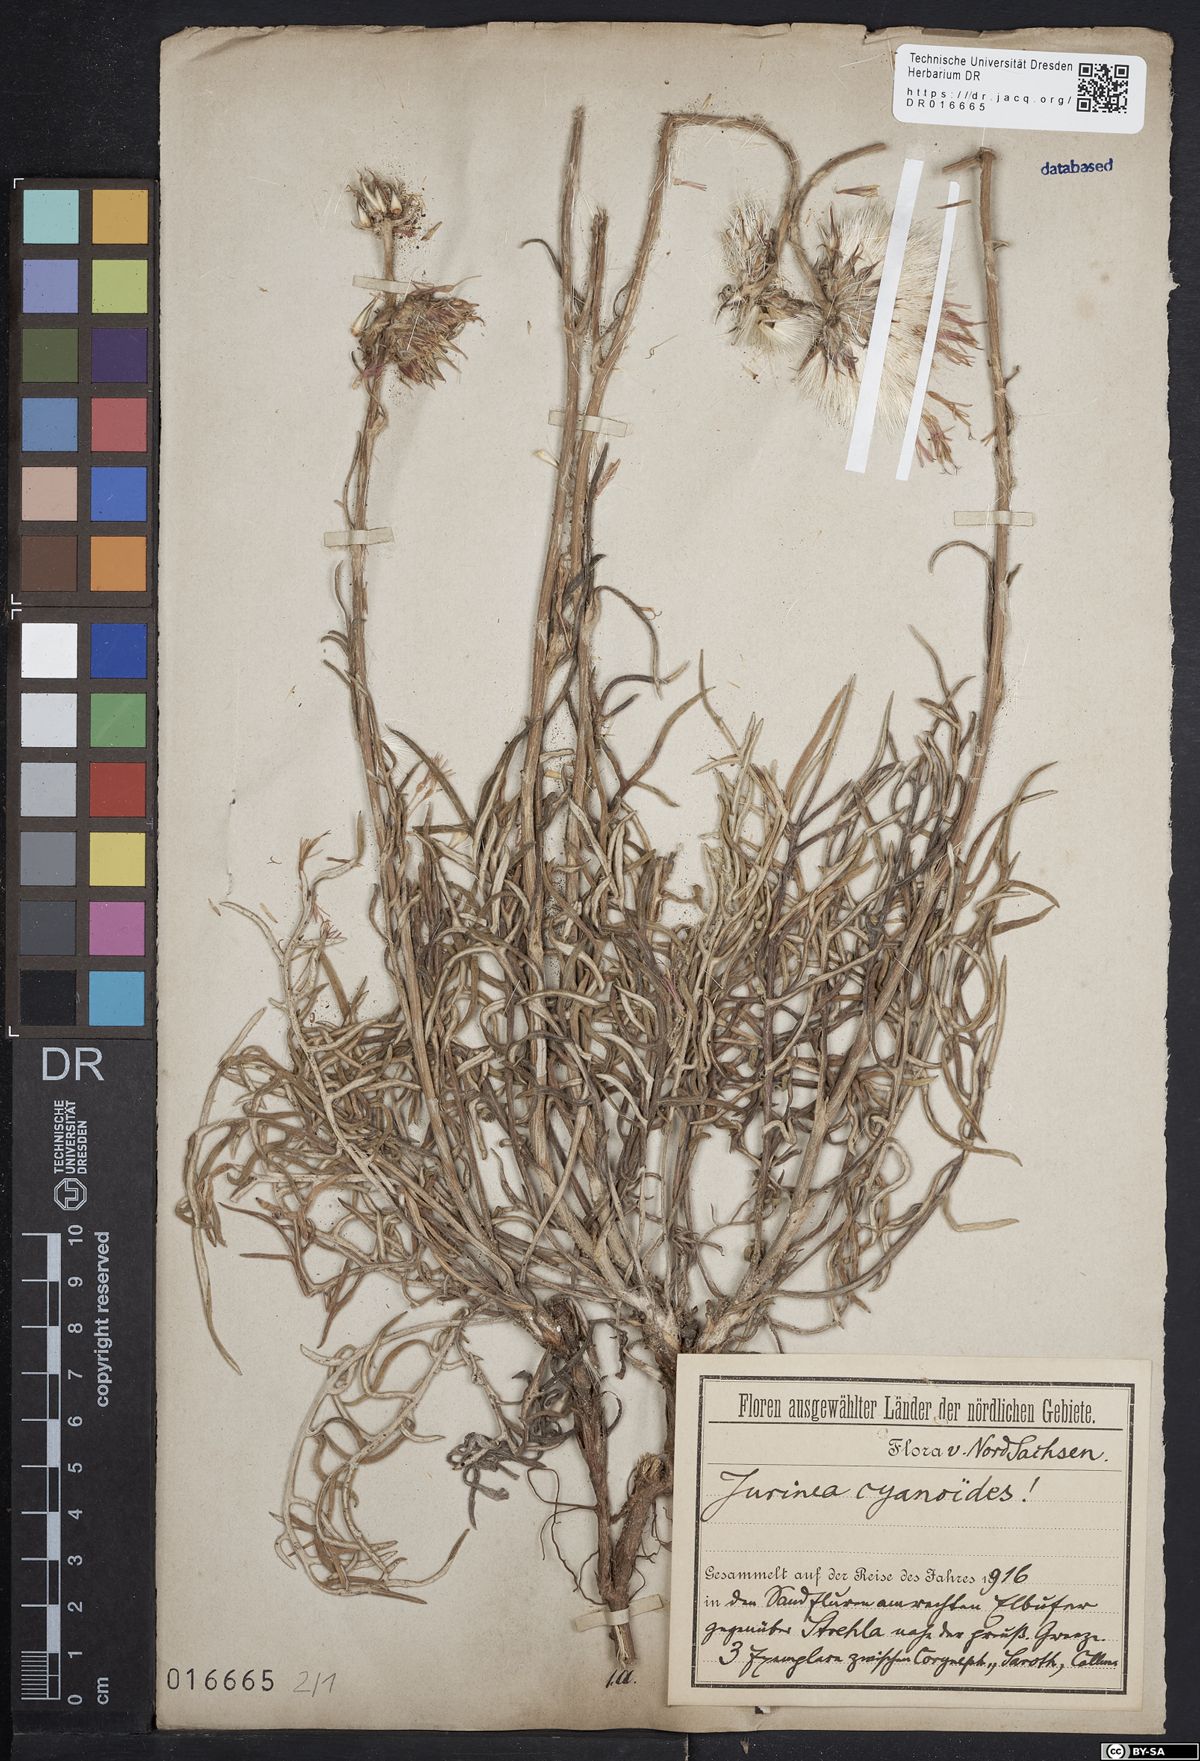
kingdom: Plantae
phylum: Tracheophyta
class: Magnoliopsida
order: Asterales
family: Asteraceae
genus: Jurinea
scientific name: Jurinea cyanoides
